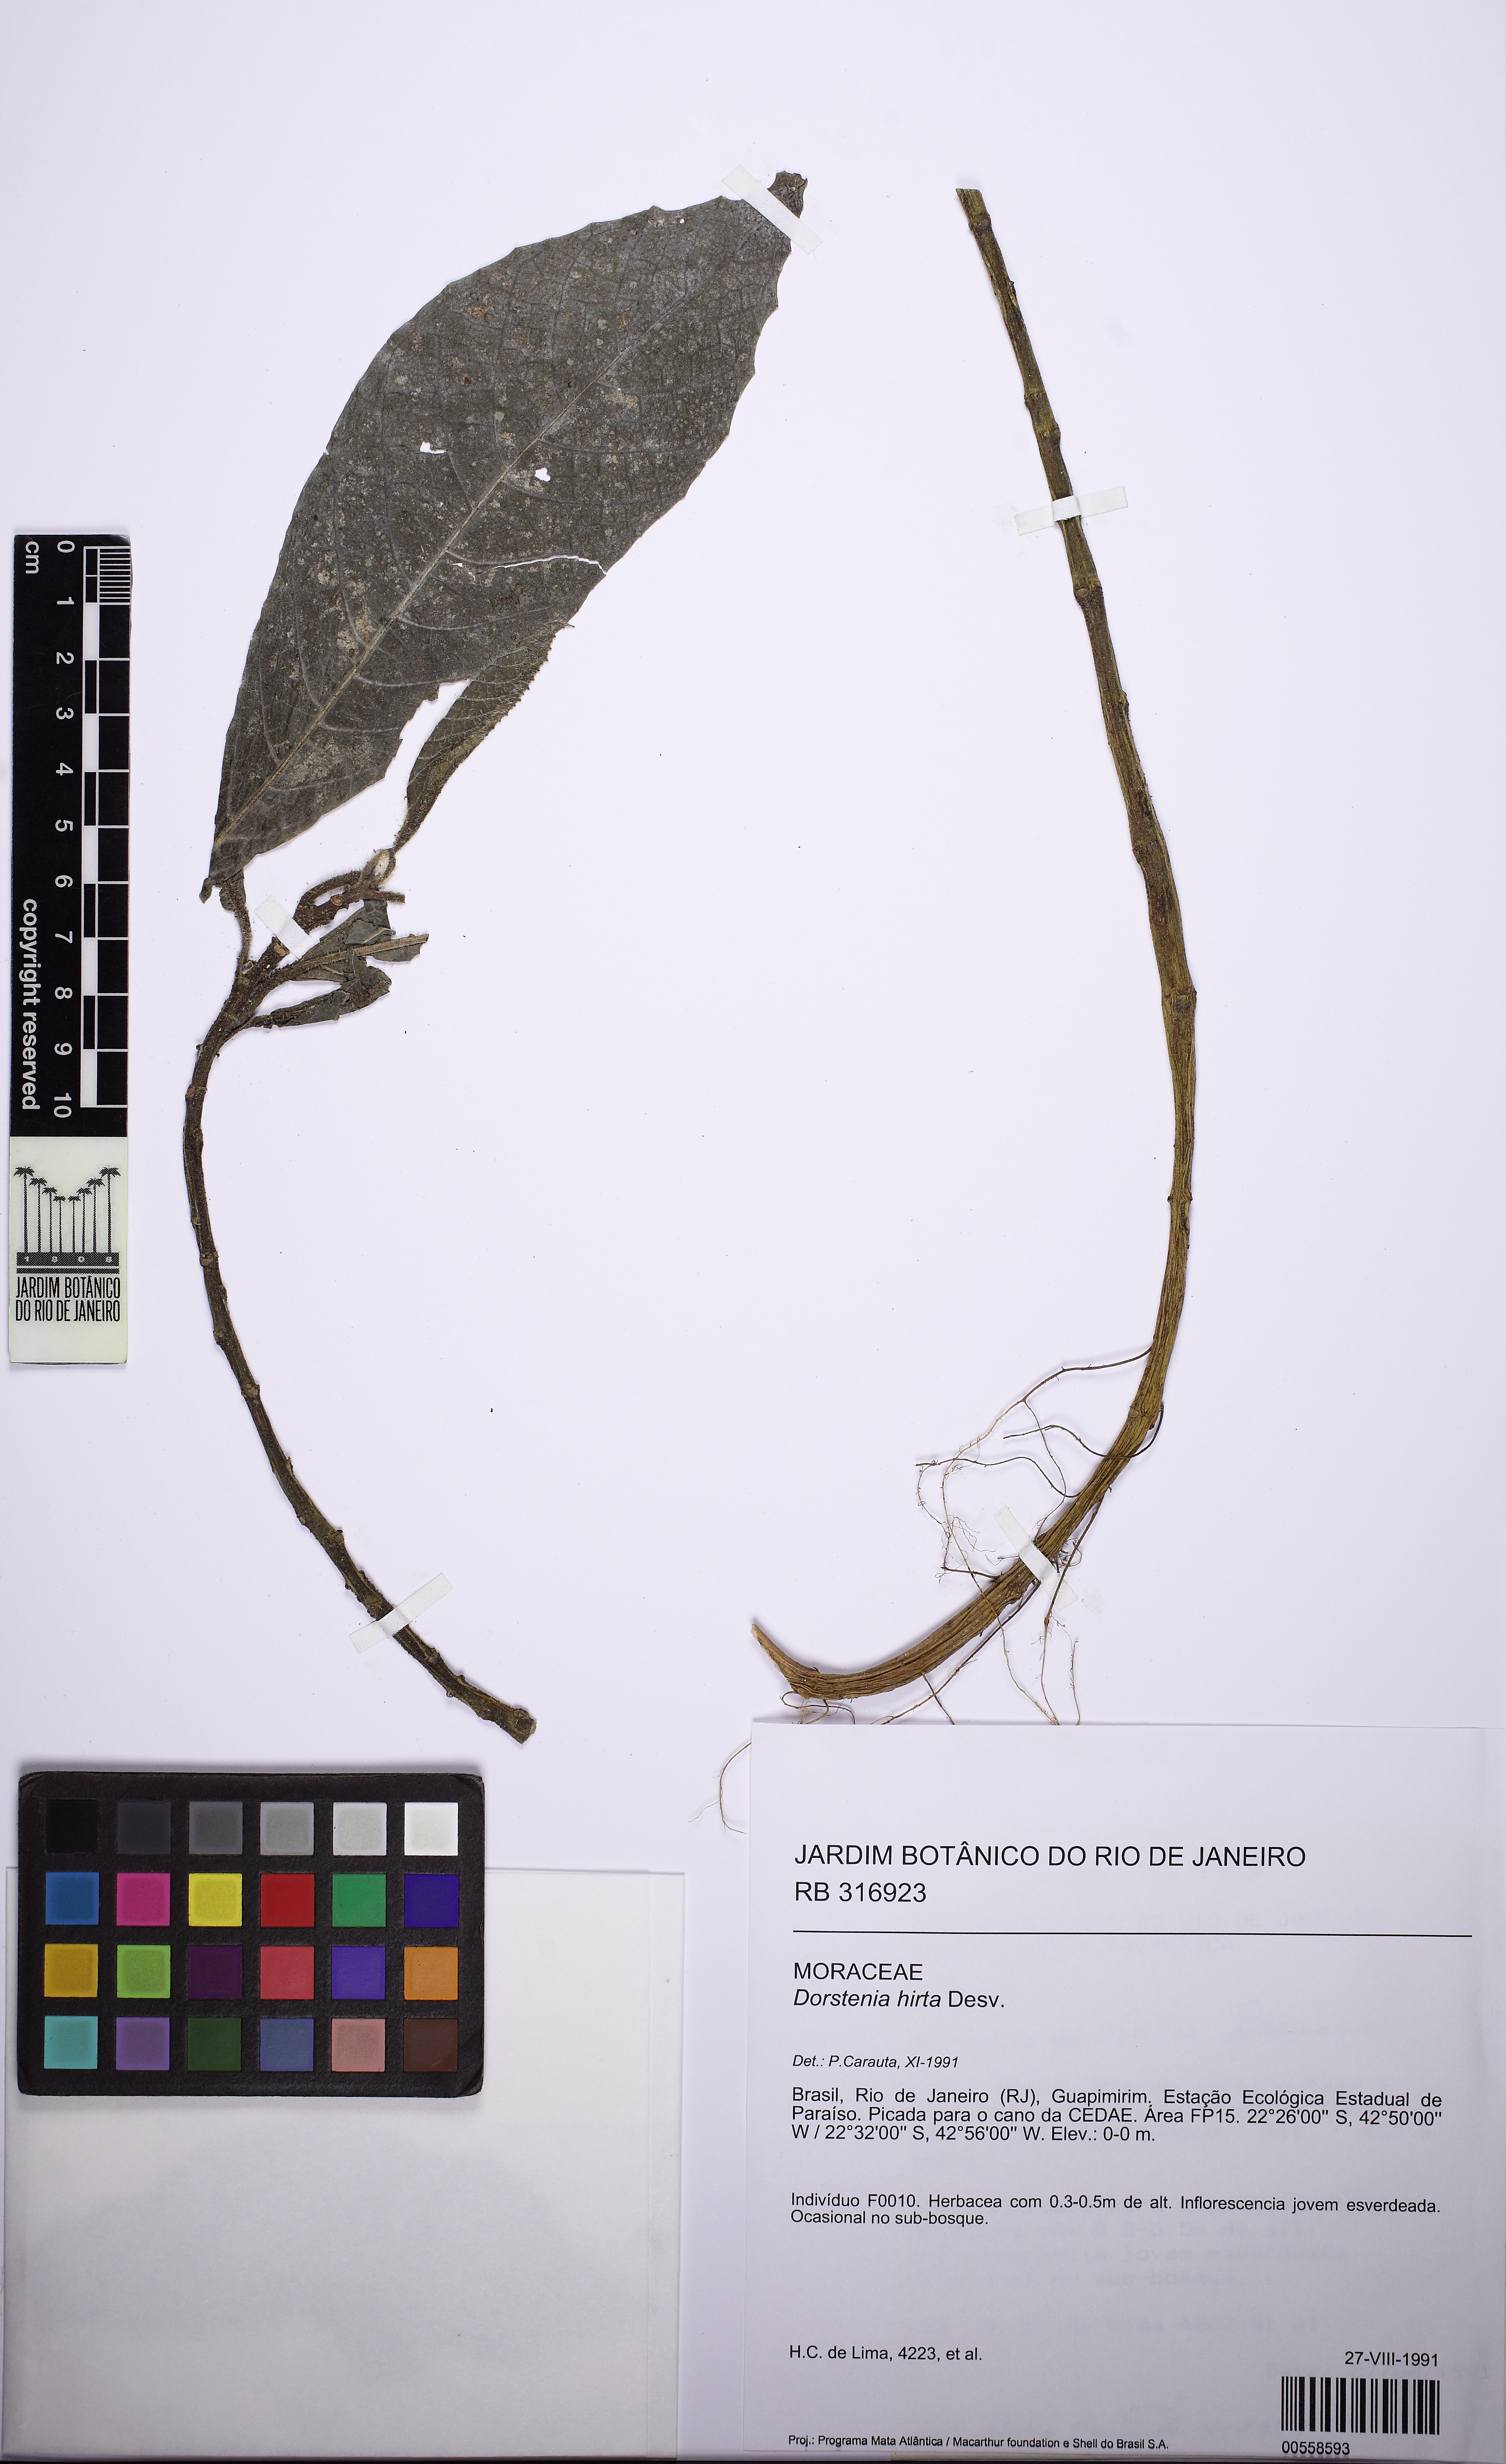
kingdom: Plantae
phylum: Tracheophyta
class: Magnoliopsida
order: Rosales
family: Moraceae
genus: Dorstenia
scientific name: Dorstenia hirta
